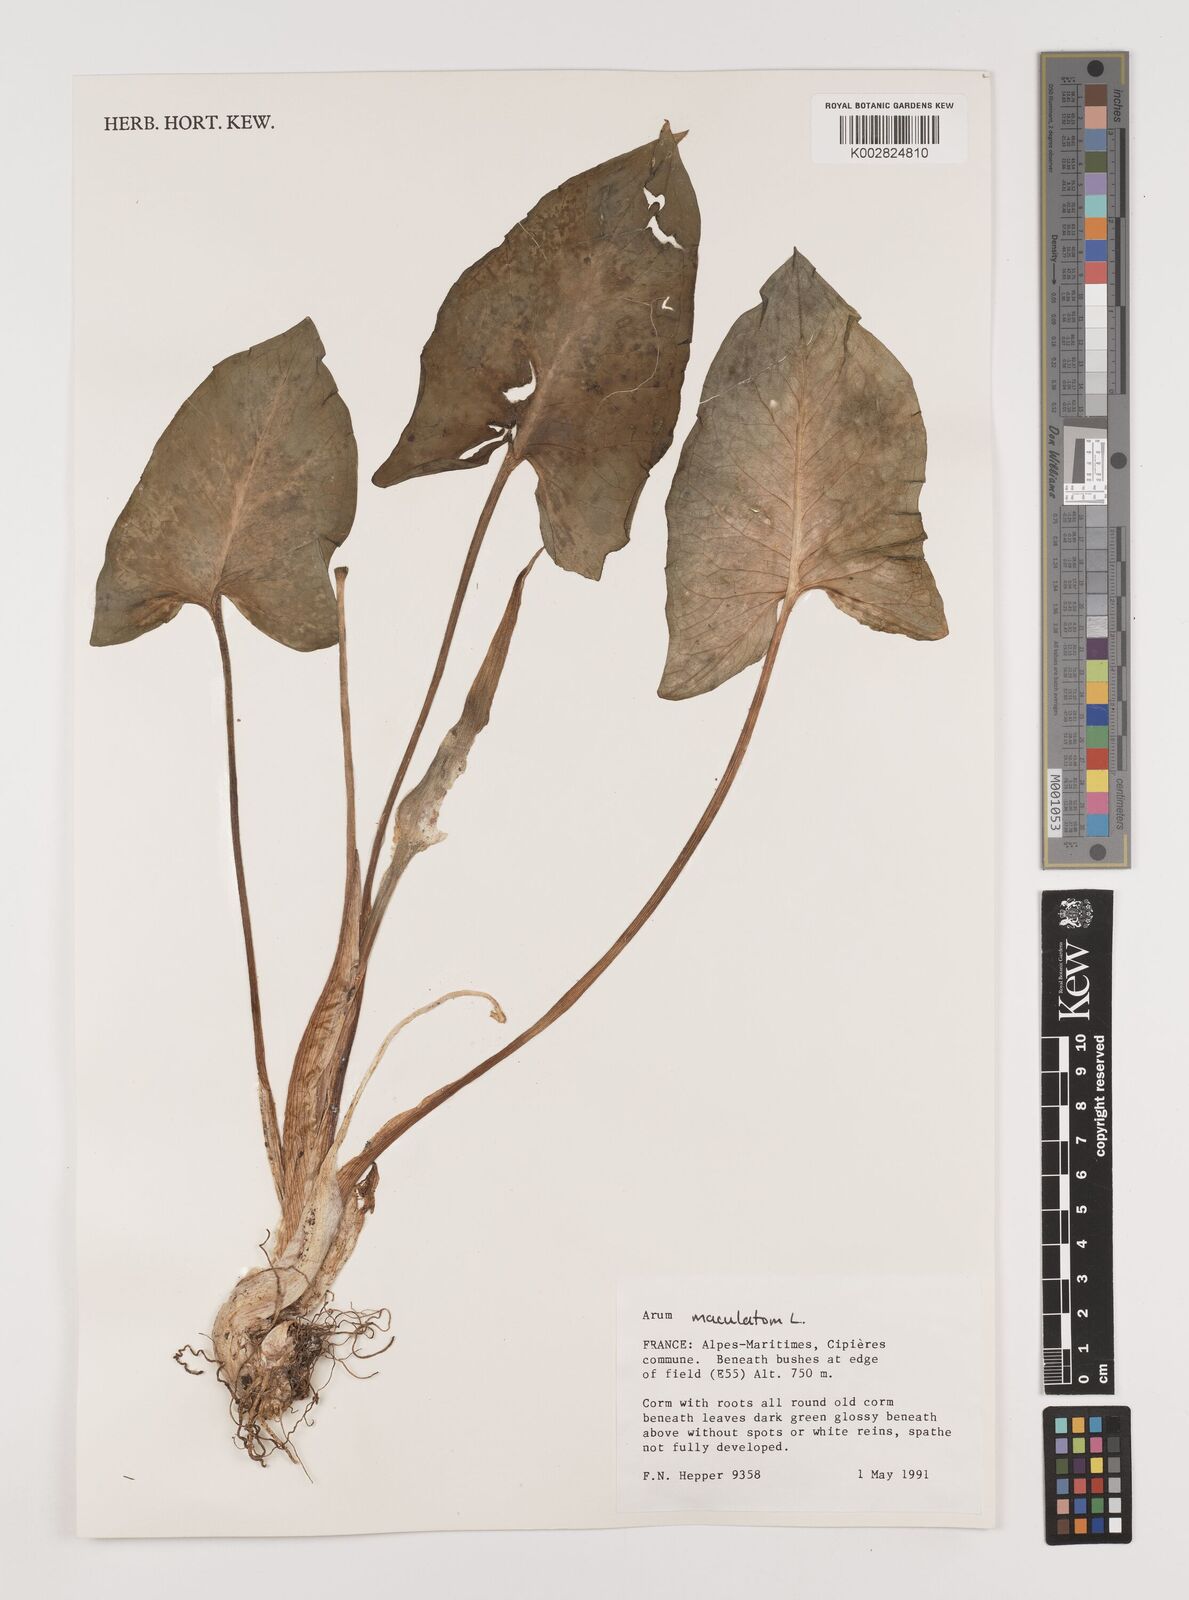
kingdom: Plantae
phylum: Tracheophyta
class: Liliopsida
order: Alismatales
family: Araceae
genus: Arum
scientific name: Arum maculatum
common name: Lords-and-ladies
